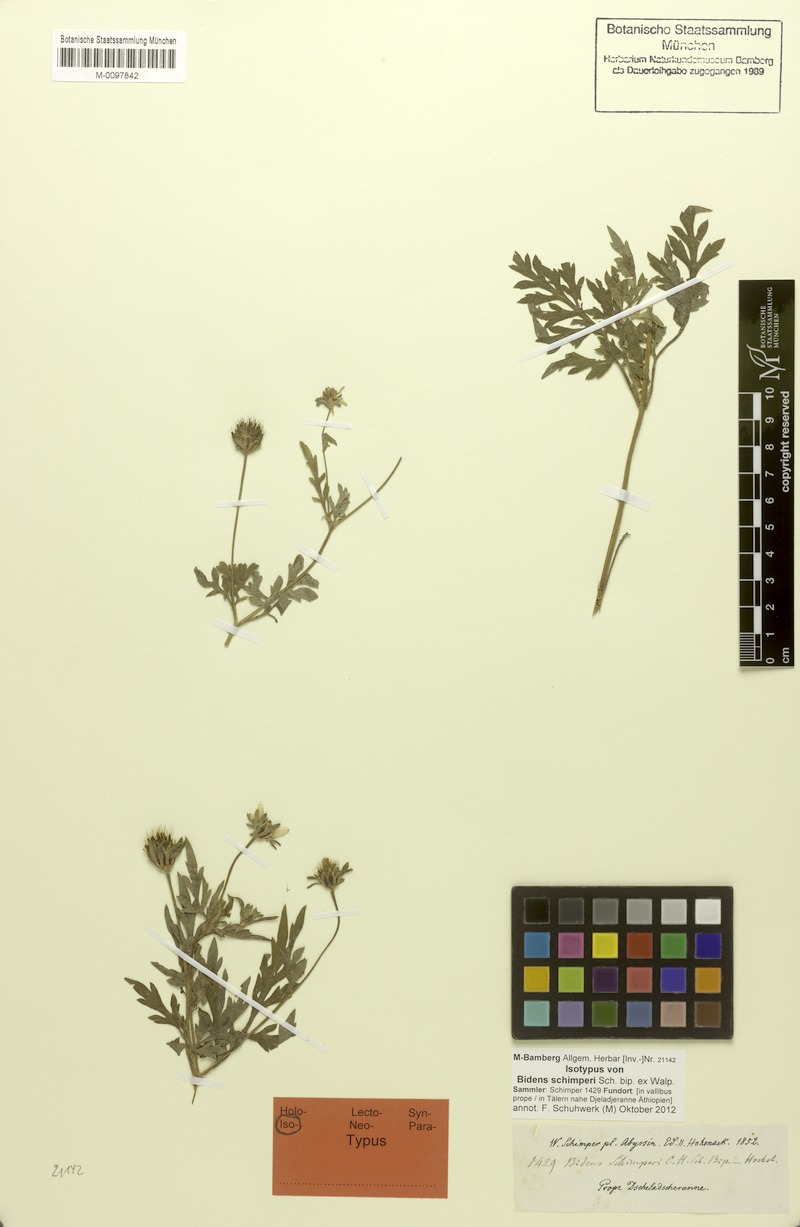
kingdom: Plantae
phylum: Tracheophyta
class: Magnoliopsida
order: Asterales
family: Asteraceae
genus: Bidens
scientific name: Bidens schimperi
